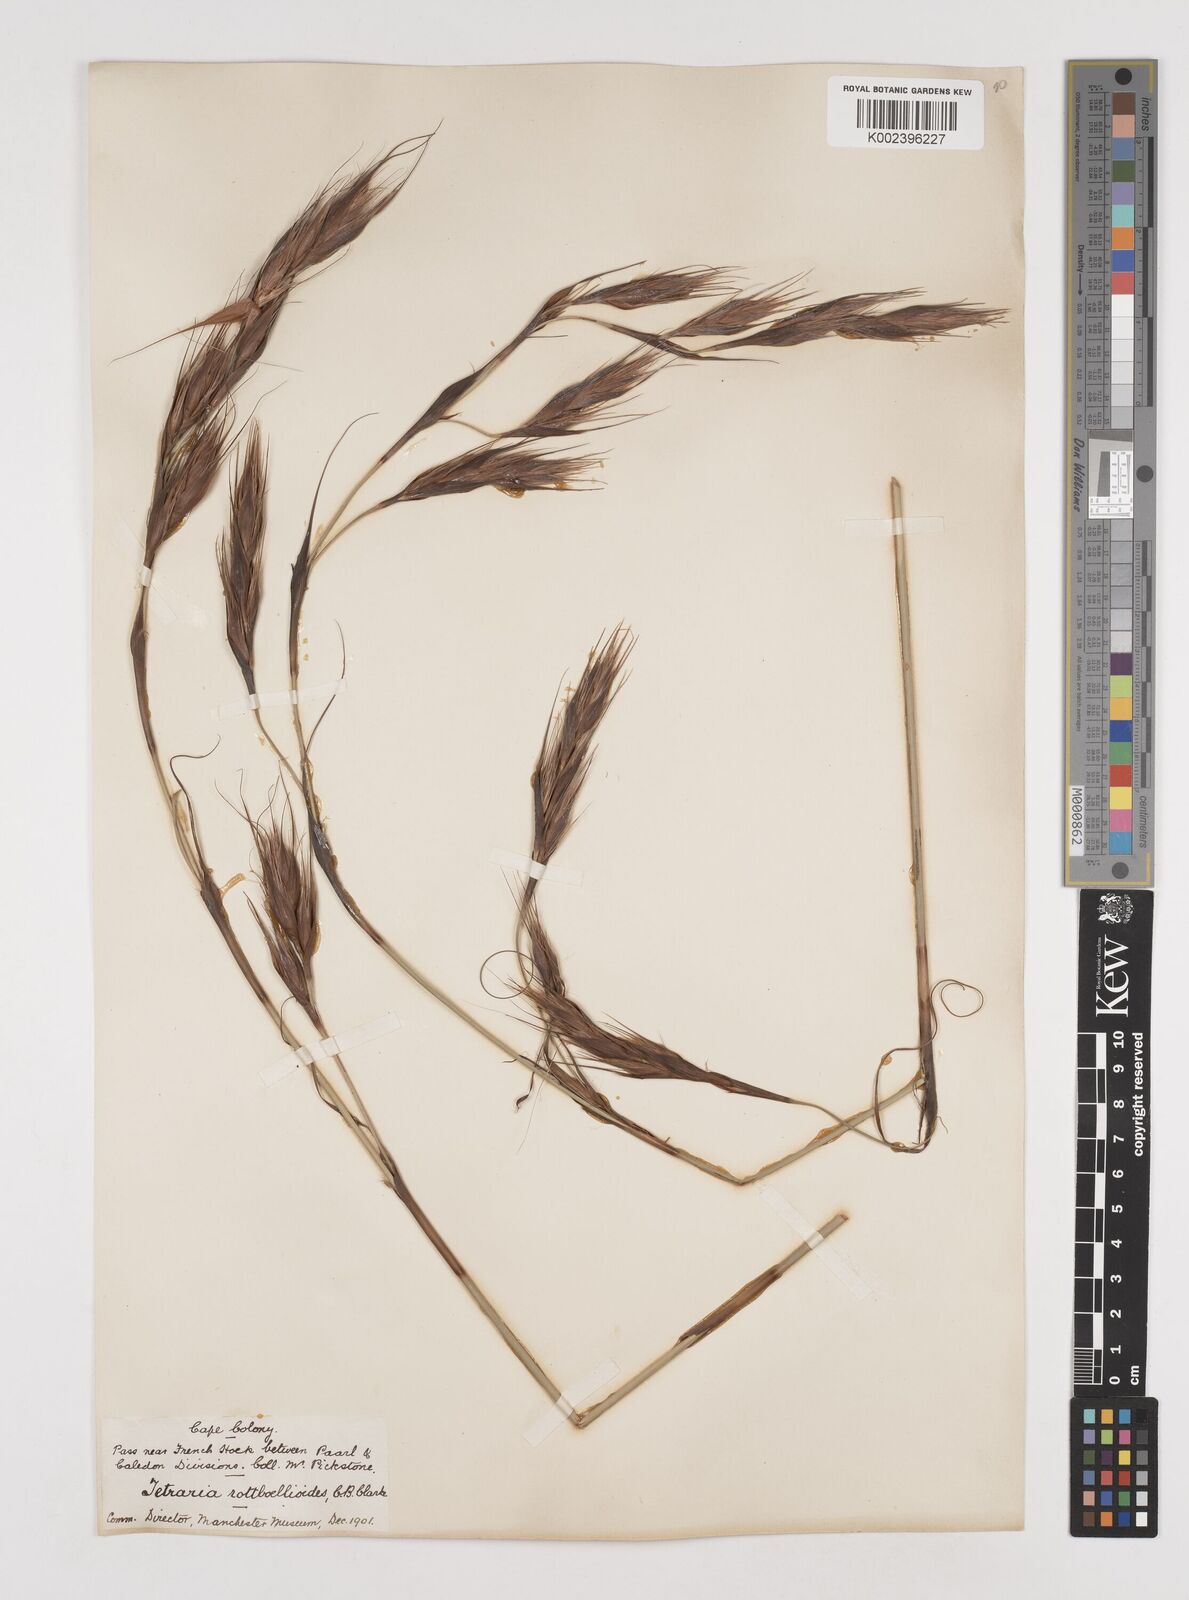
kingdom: Plantae
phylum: Tracheophyta
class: Liliopsida
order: Poales
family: Cyperaceae
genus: Tetraria
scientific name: Tetraria bromoides
